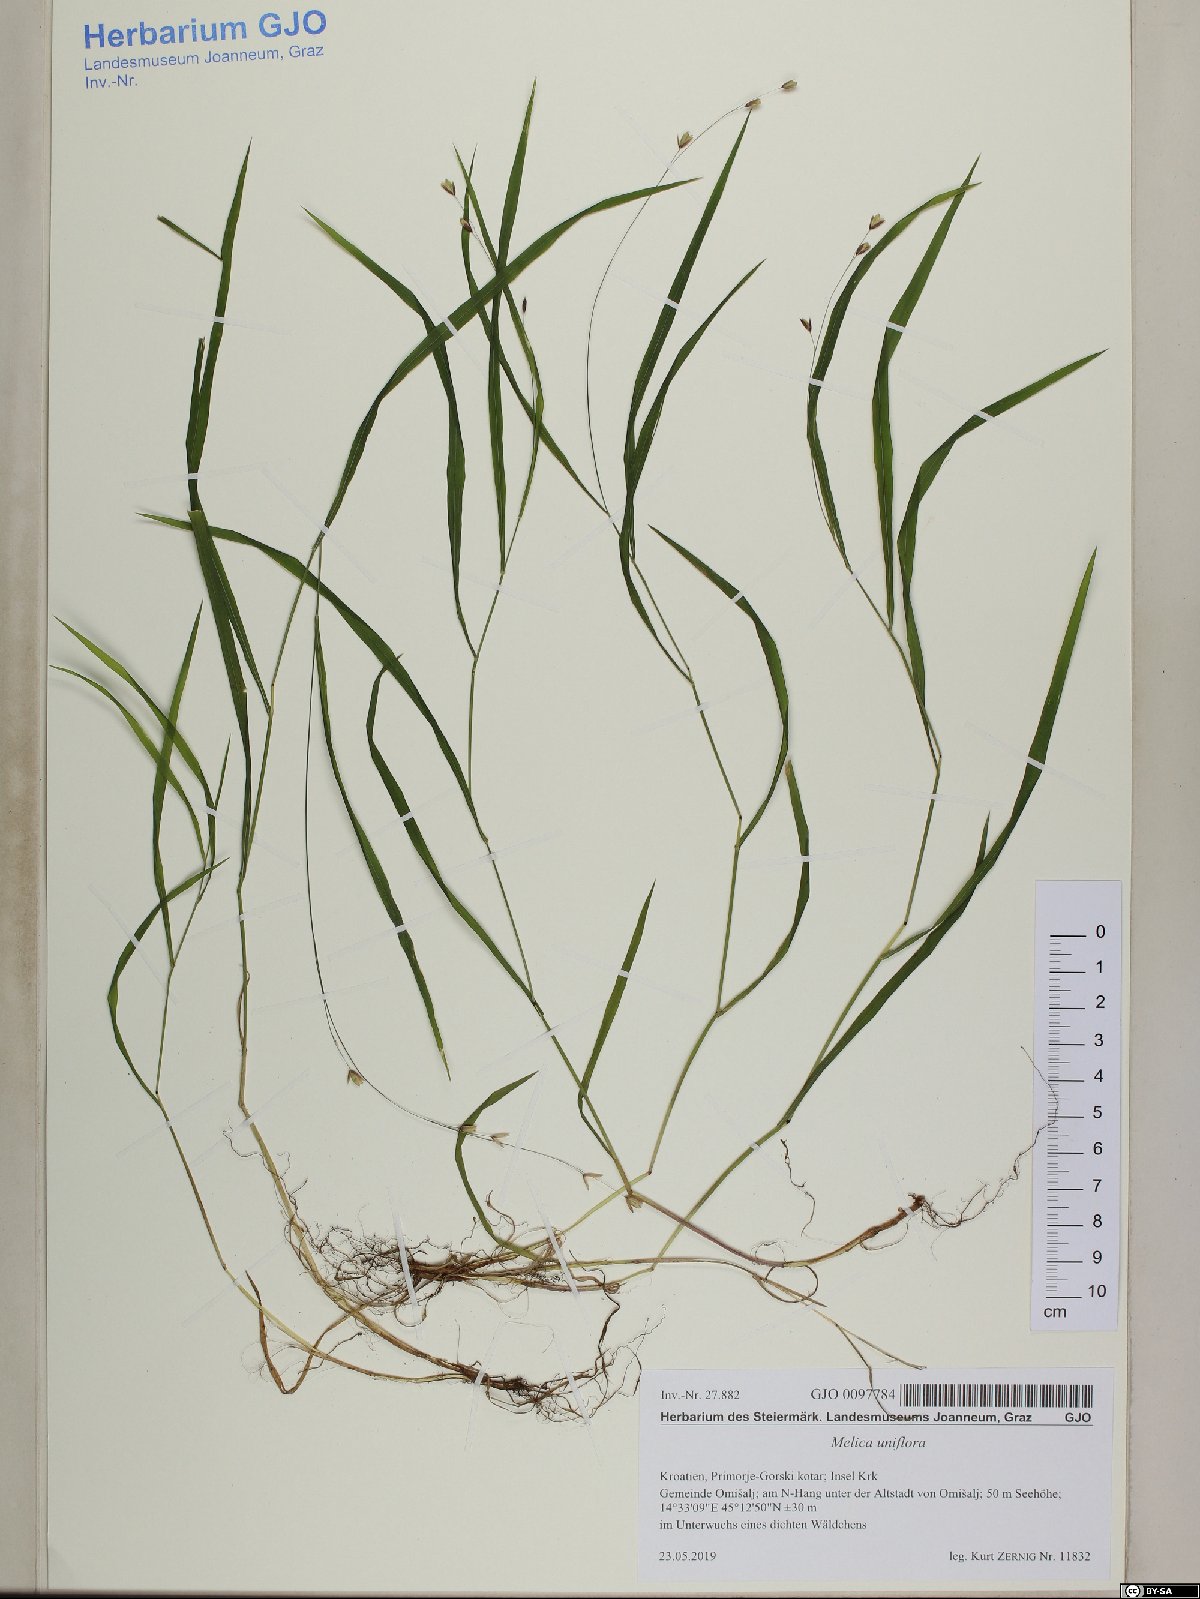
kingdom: Plantae
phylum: Tracheophyta
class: Liliopsida
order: Poales
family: Poaceae
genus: Melica
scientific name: Melica uniflora
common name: Wood melick
